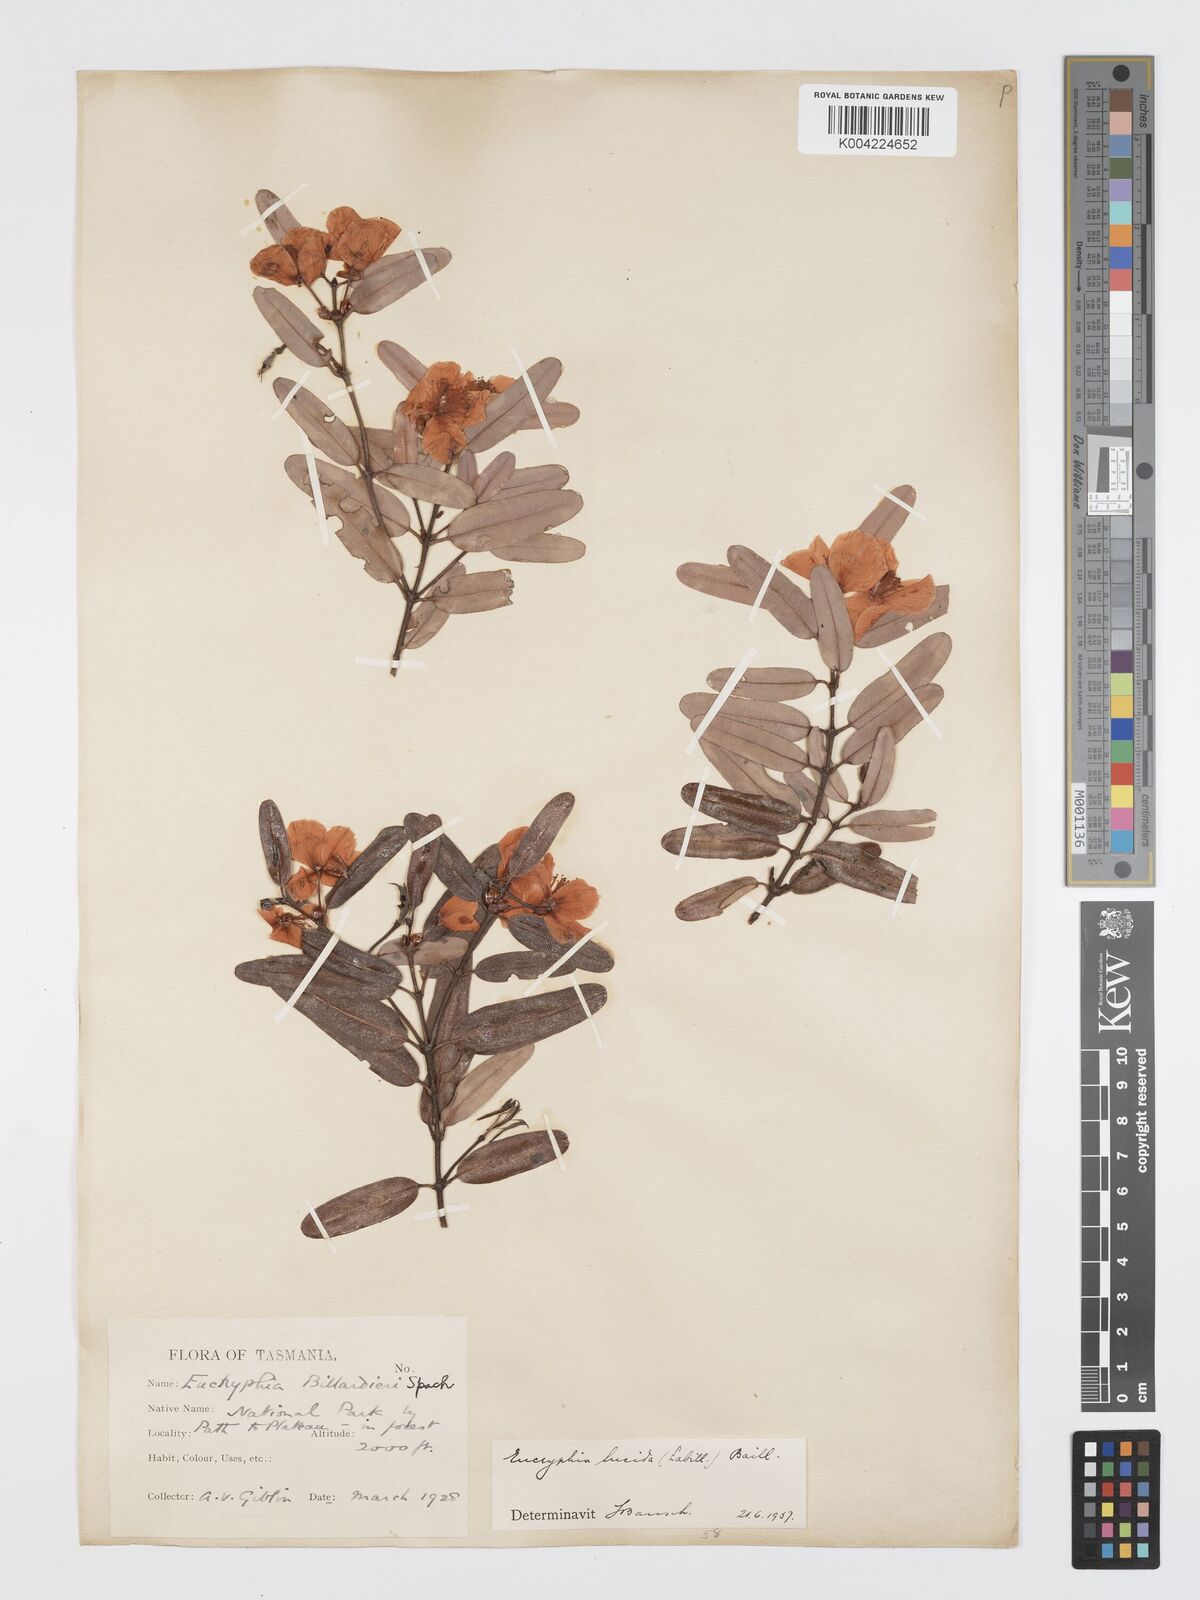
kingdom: Plantae
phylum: Tracheophyta
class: Magnoliopsida
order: Oxalidales
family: Cunoniaceae
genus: Eucryphia
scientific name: Eucryphia lucida
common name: Leatherwood
